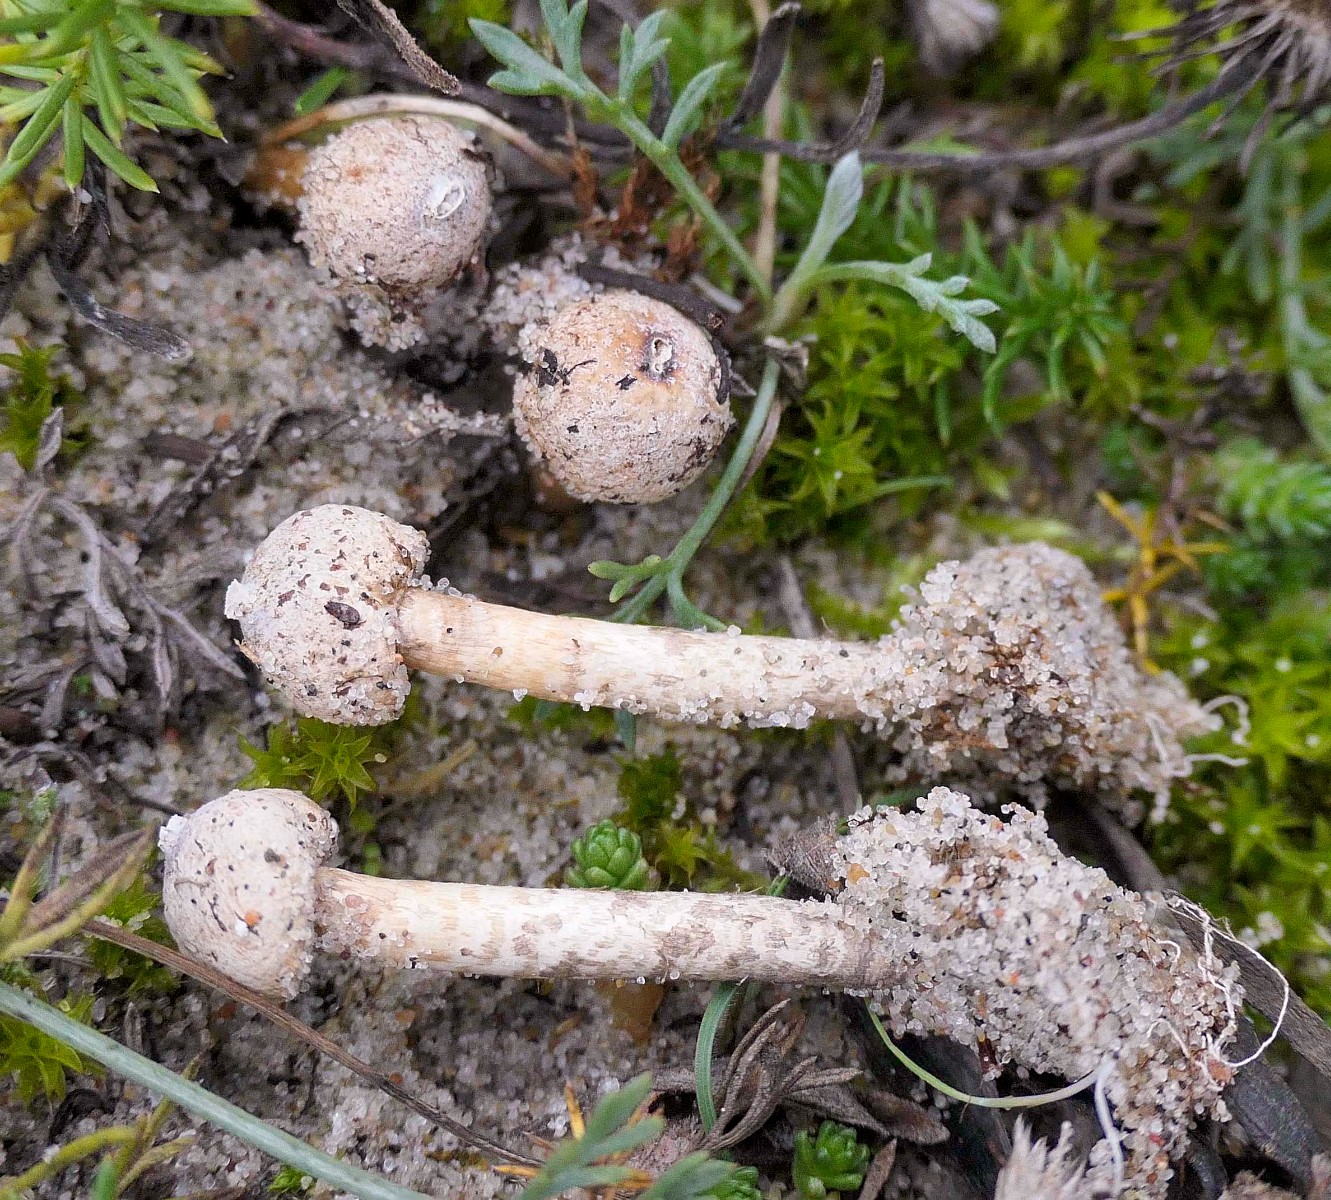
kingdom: Fungi
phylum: Basidiomycota
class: Agaricomycetes
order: Agaricales
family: Agaricaceae
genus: Tulostoma
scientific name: Tulostoma brumale
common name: vinter-stilkbovist
